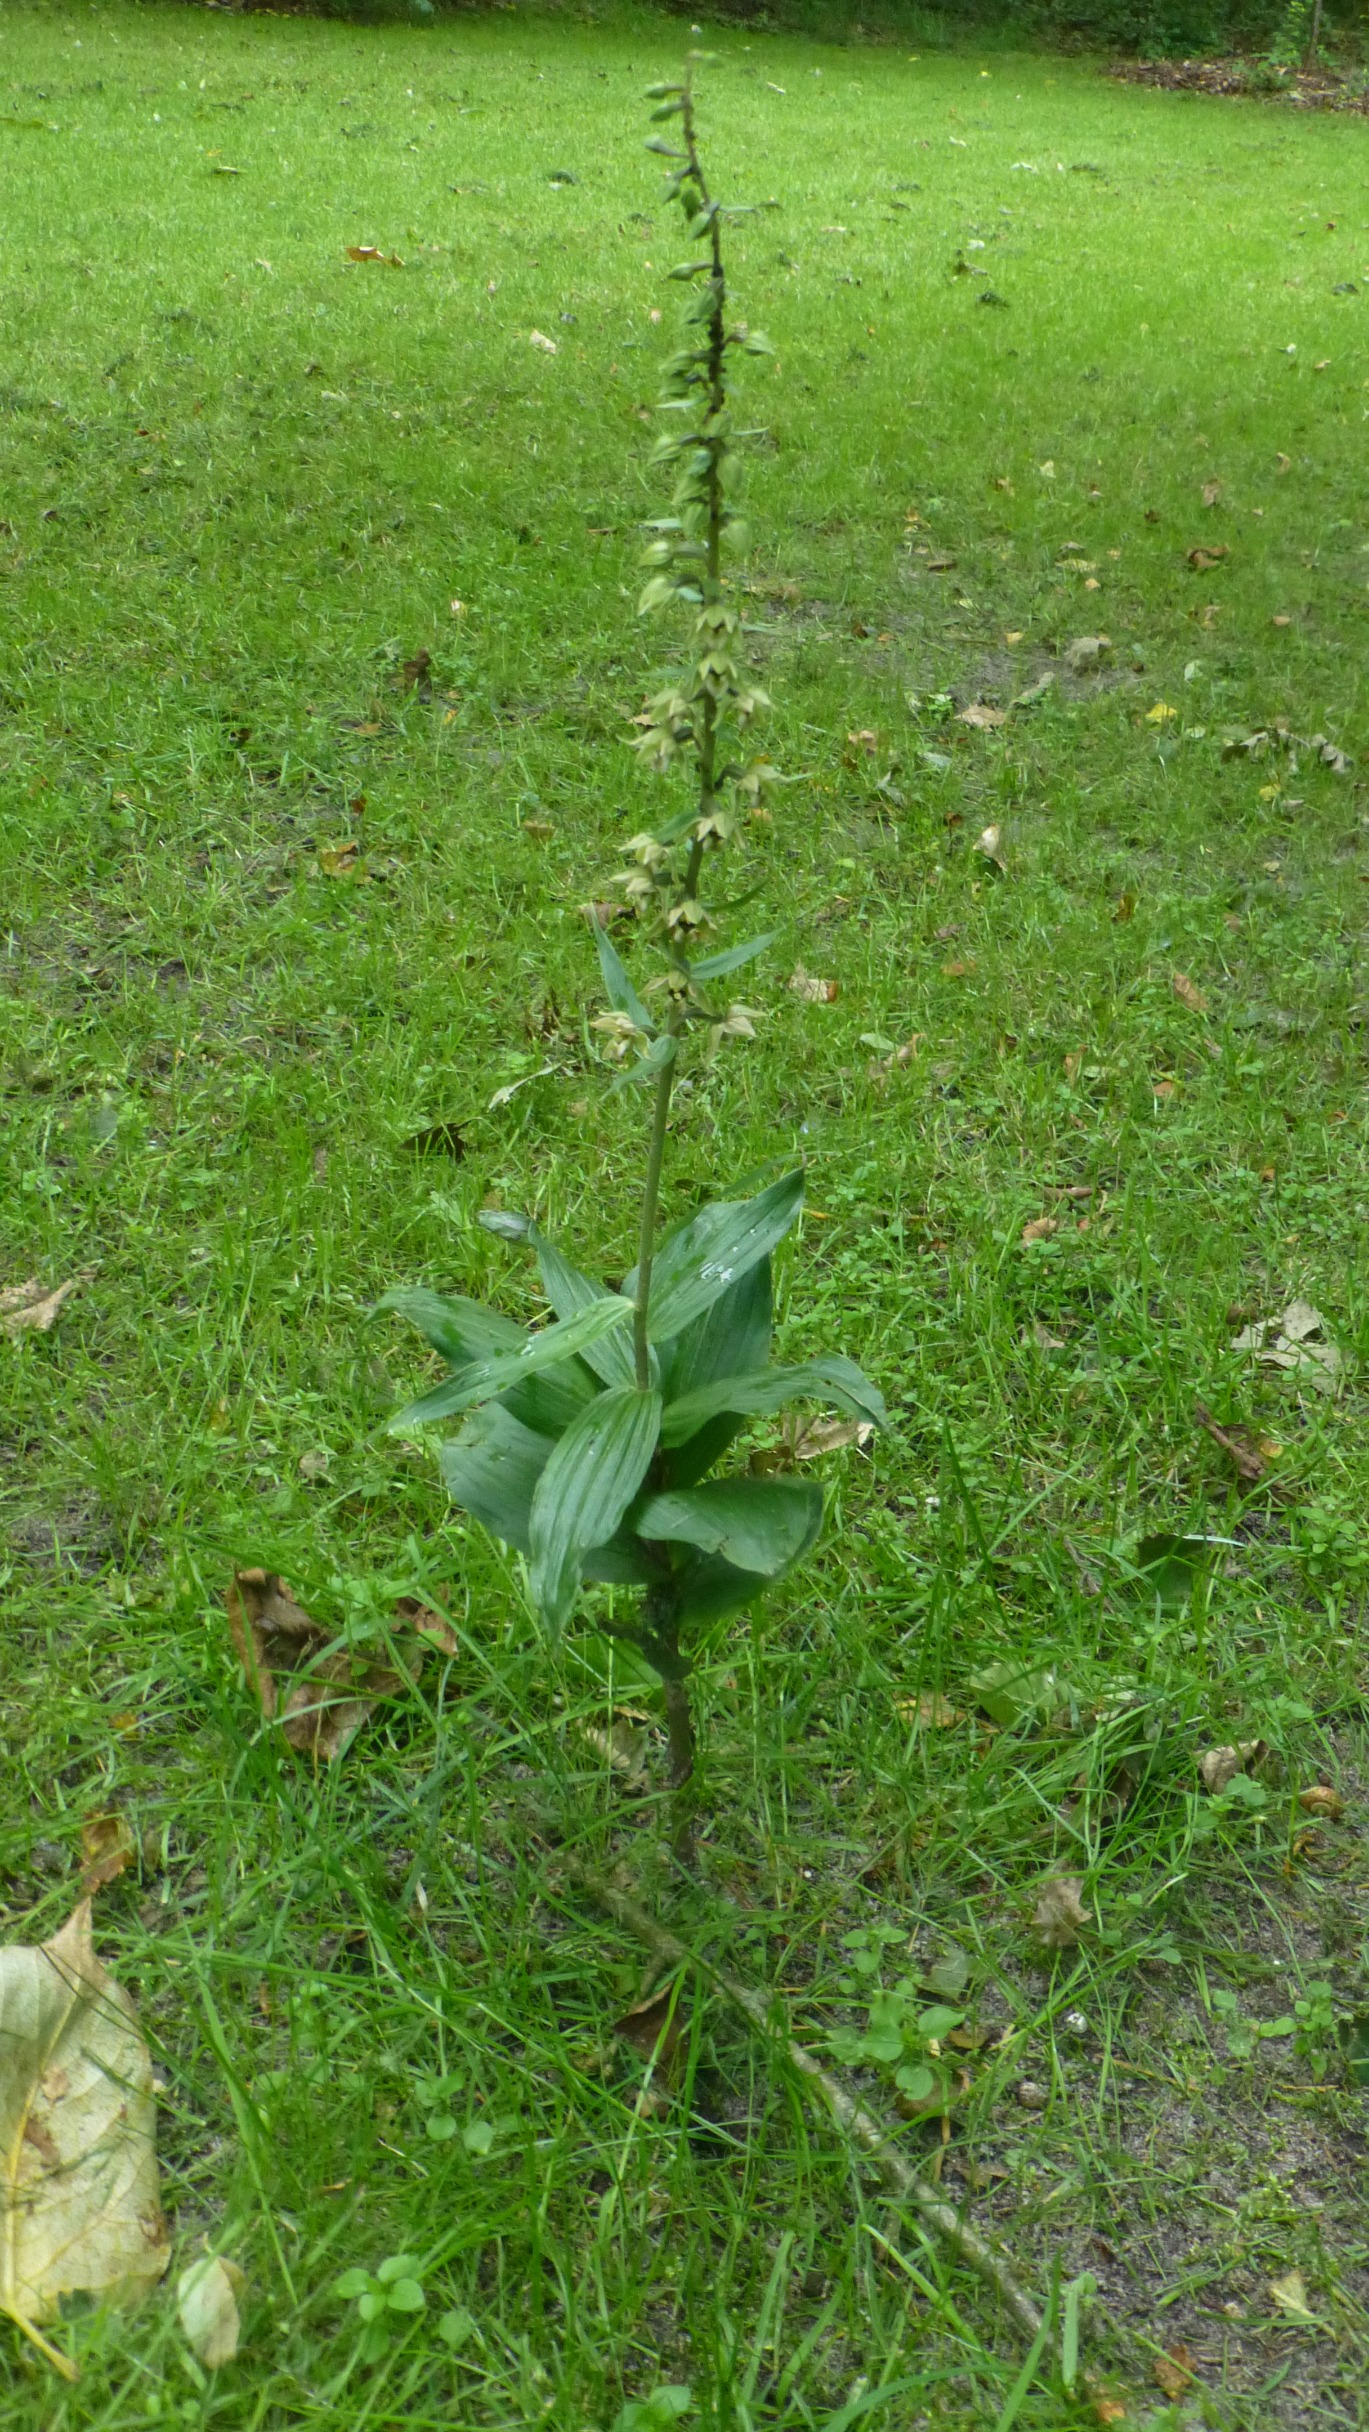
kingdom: Plantae
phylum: Tracheophyta
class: Liliopsida
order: Asparagales
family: Orchidaceae
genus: Epipactis
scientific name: Epipactis helleborine
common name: Skov-hullæbe
